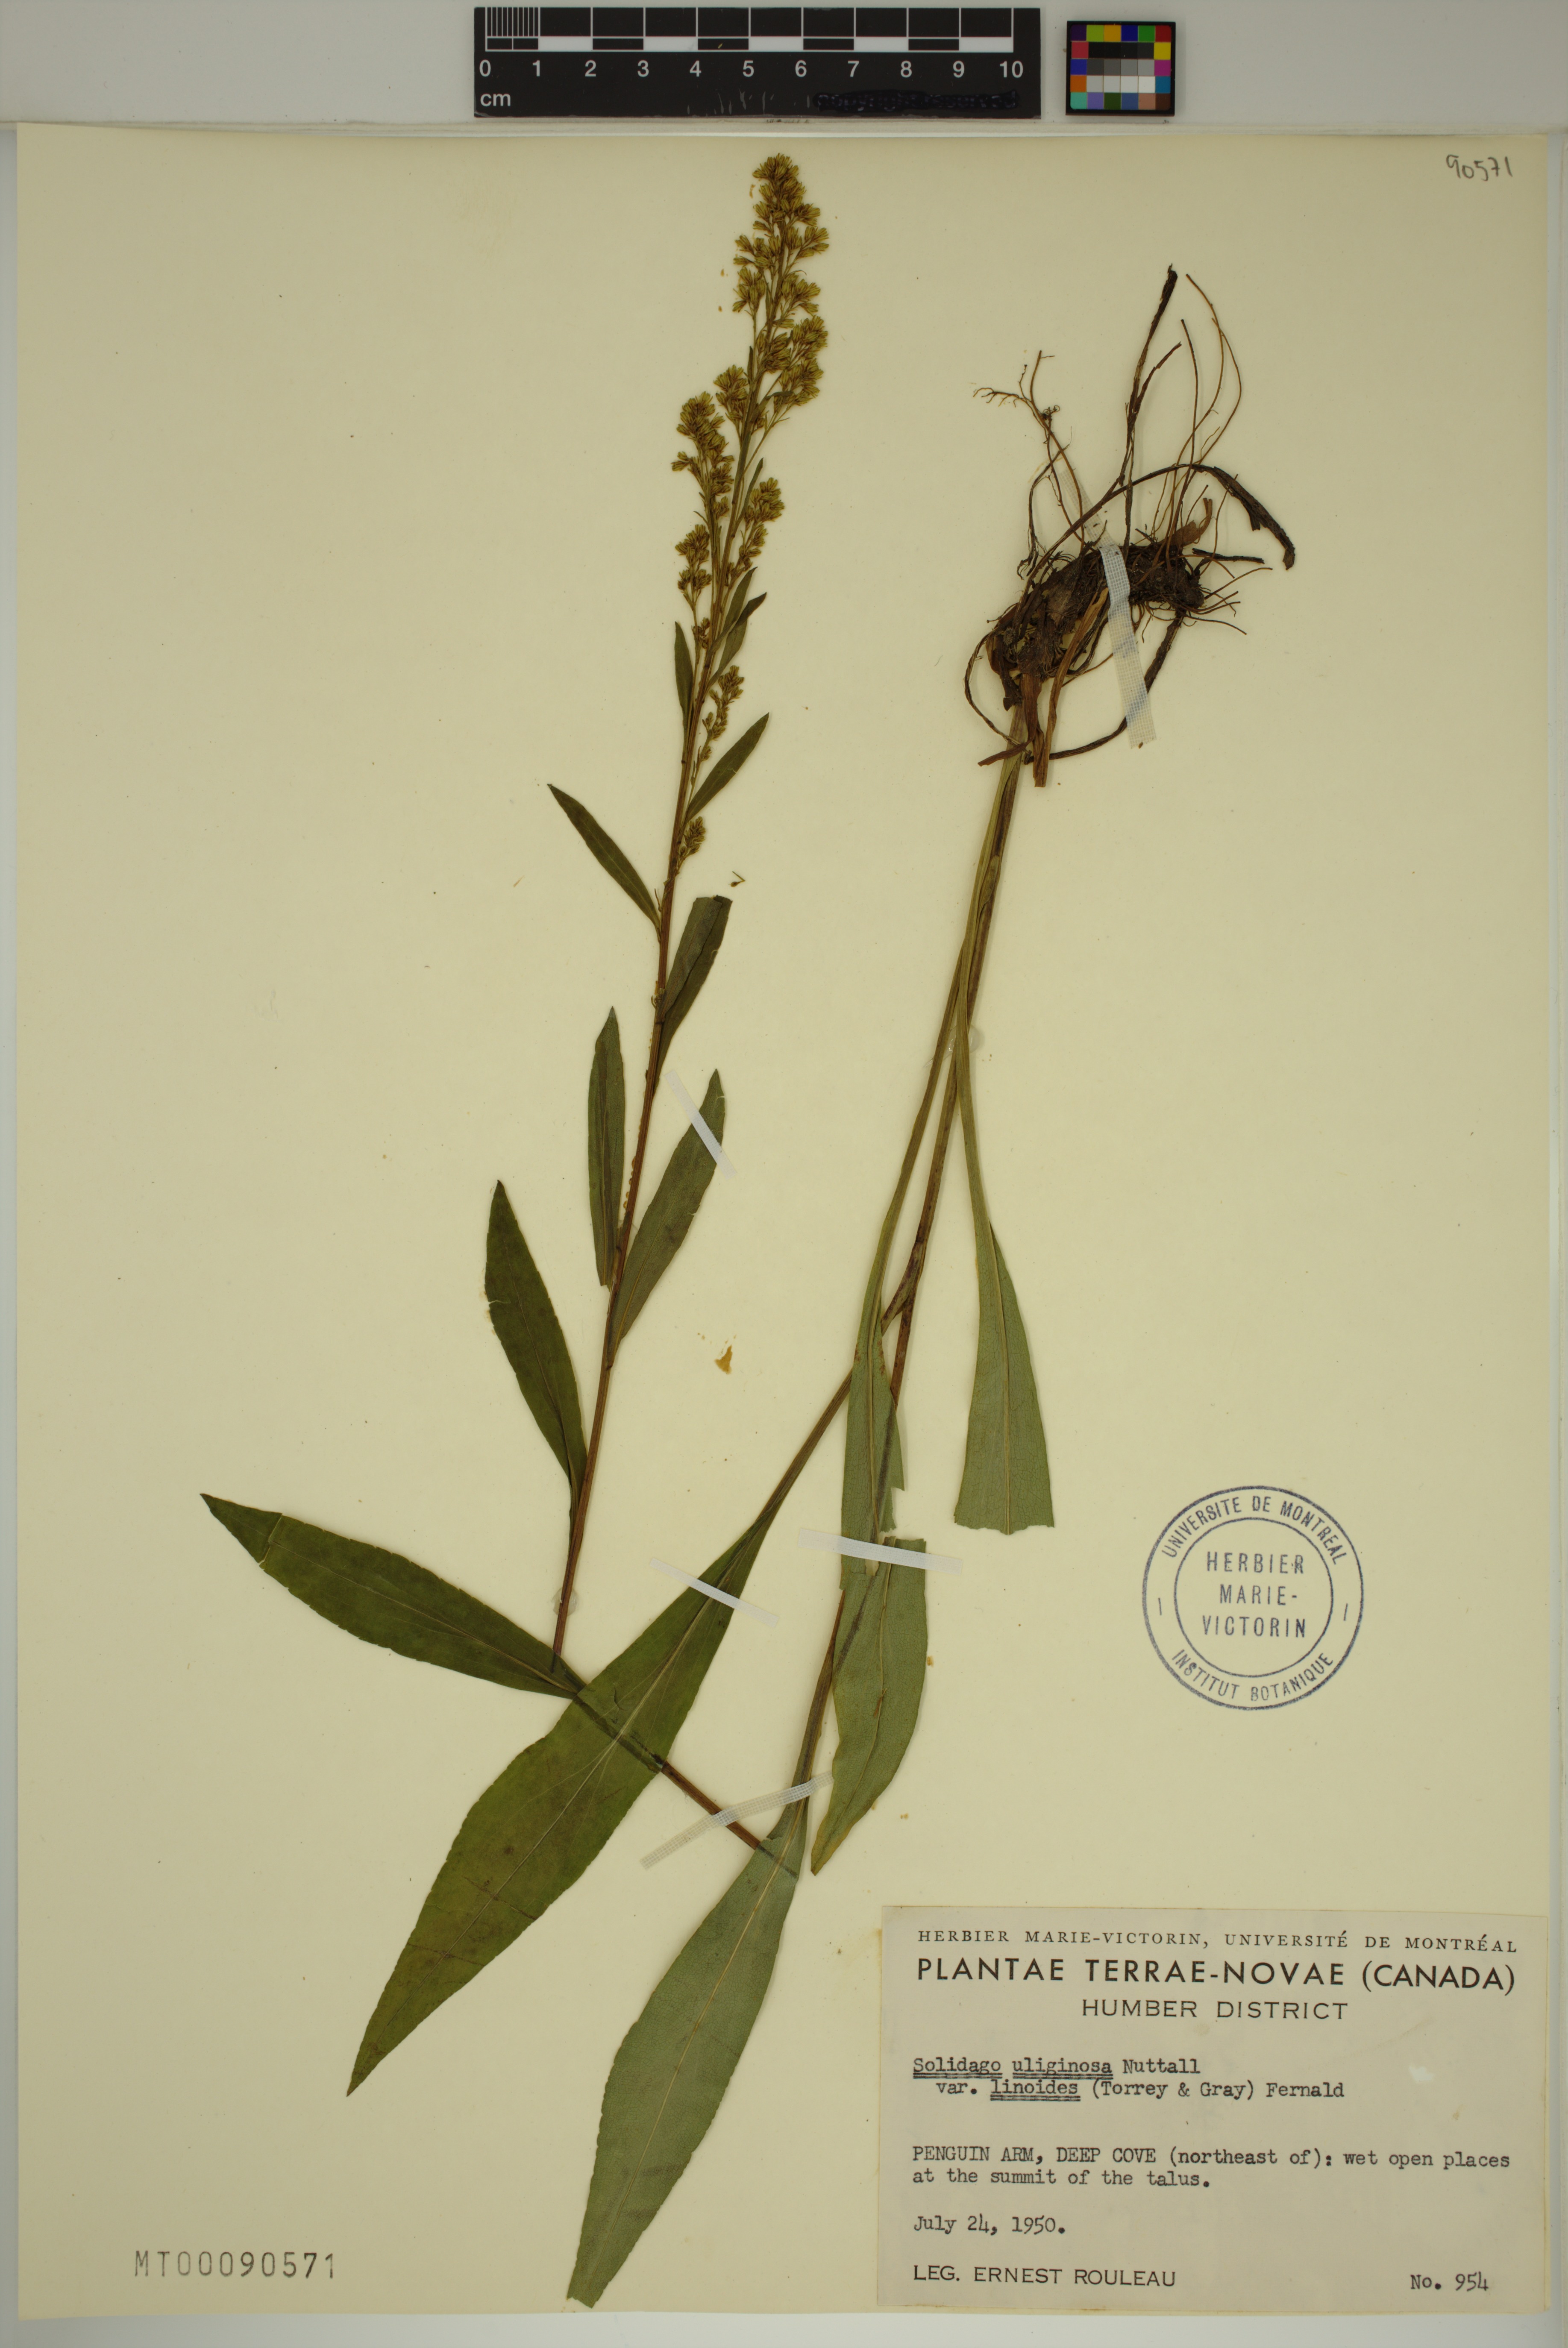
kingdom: Plantae
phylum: Tracheophyta
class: Magnoliopsida
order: Asterales
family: Asteraceae
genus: Solidago
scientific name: Solidago uliginosa
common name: Bog goldenrod
